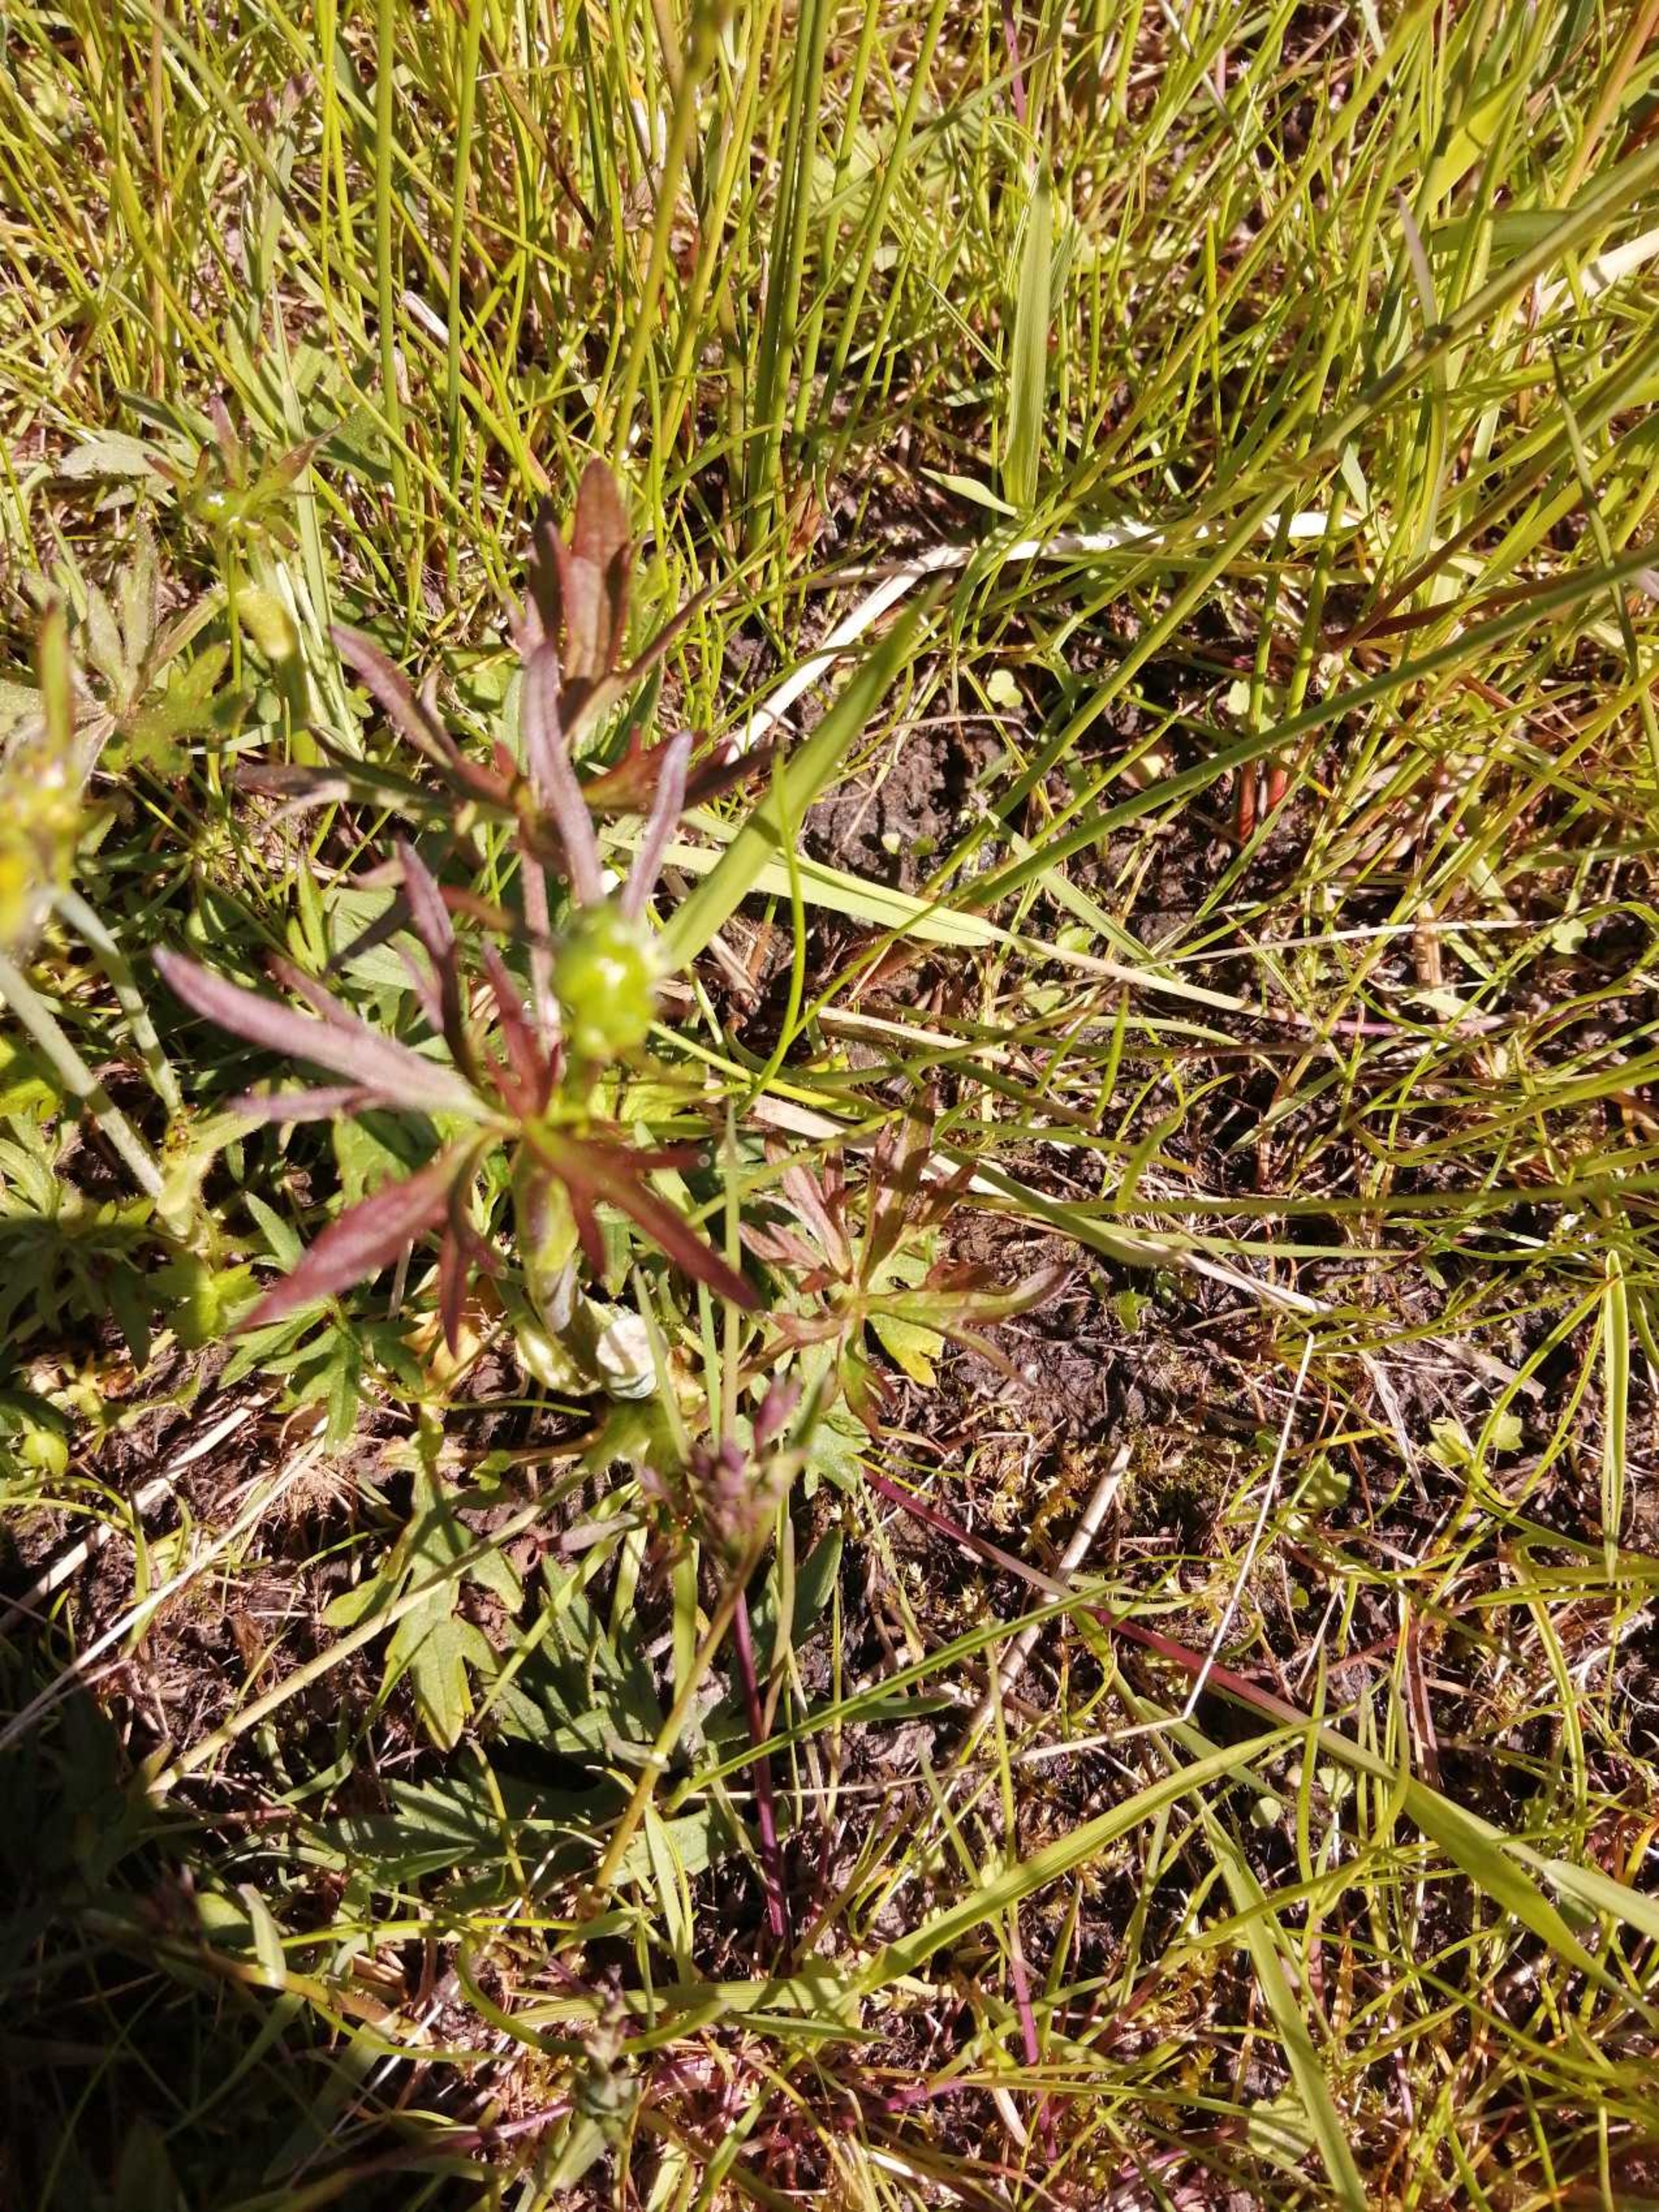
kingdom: Plantae
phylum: Tracheophyta
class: Magnoliopsida
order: Ranunculales
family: Ranunculaceae
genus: Ranunculus
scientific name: Ranunculus acris
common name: Bidende ranunkel
